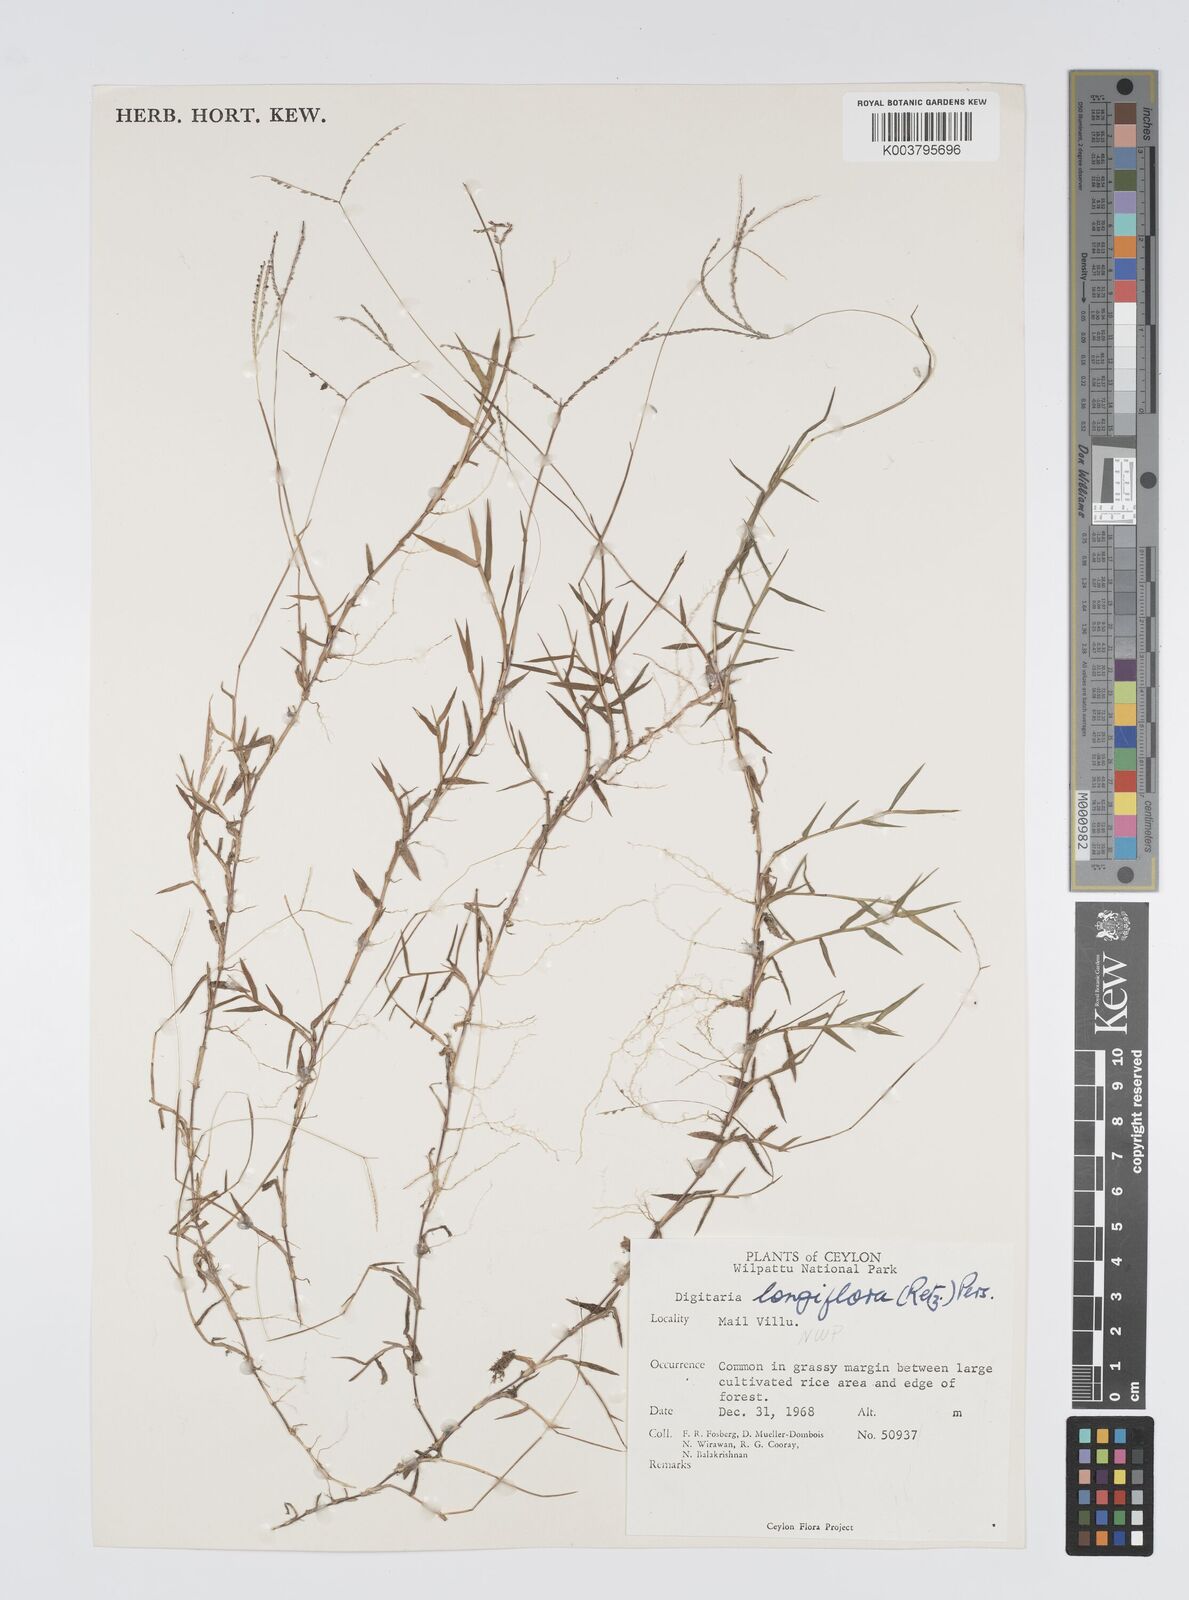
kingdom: Plantae
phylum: Tracheophyta
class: Liliopsida
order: Poales
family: Poaceae
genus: Digitaria
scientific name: Digitaria longiflora
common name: Wire crabgrass
